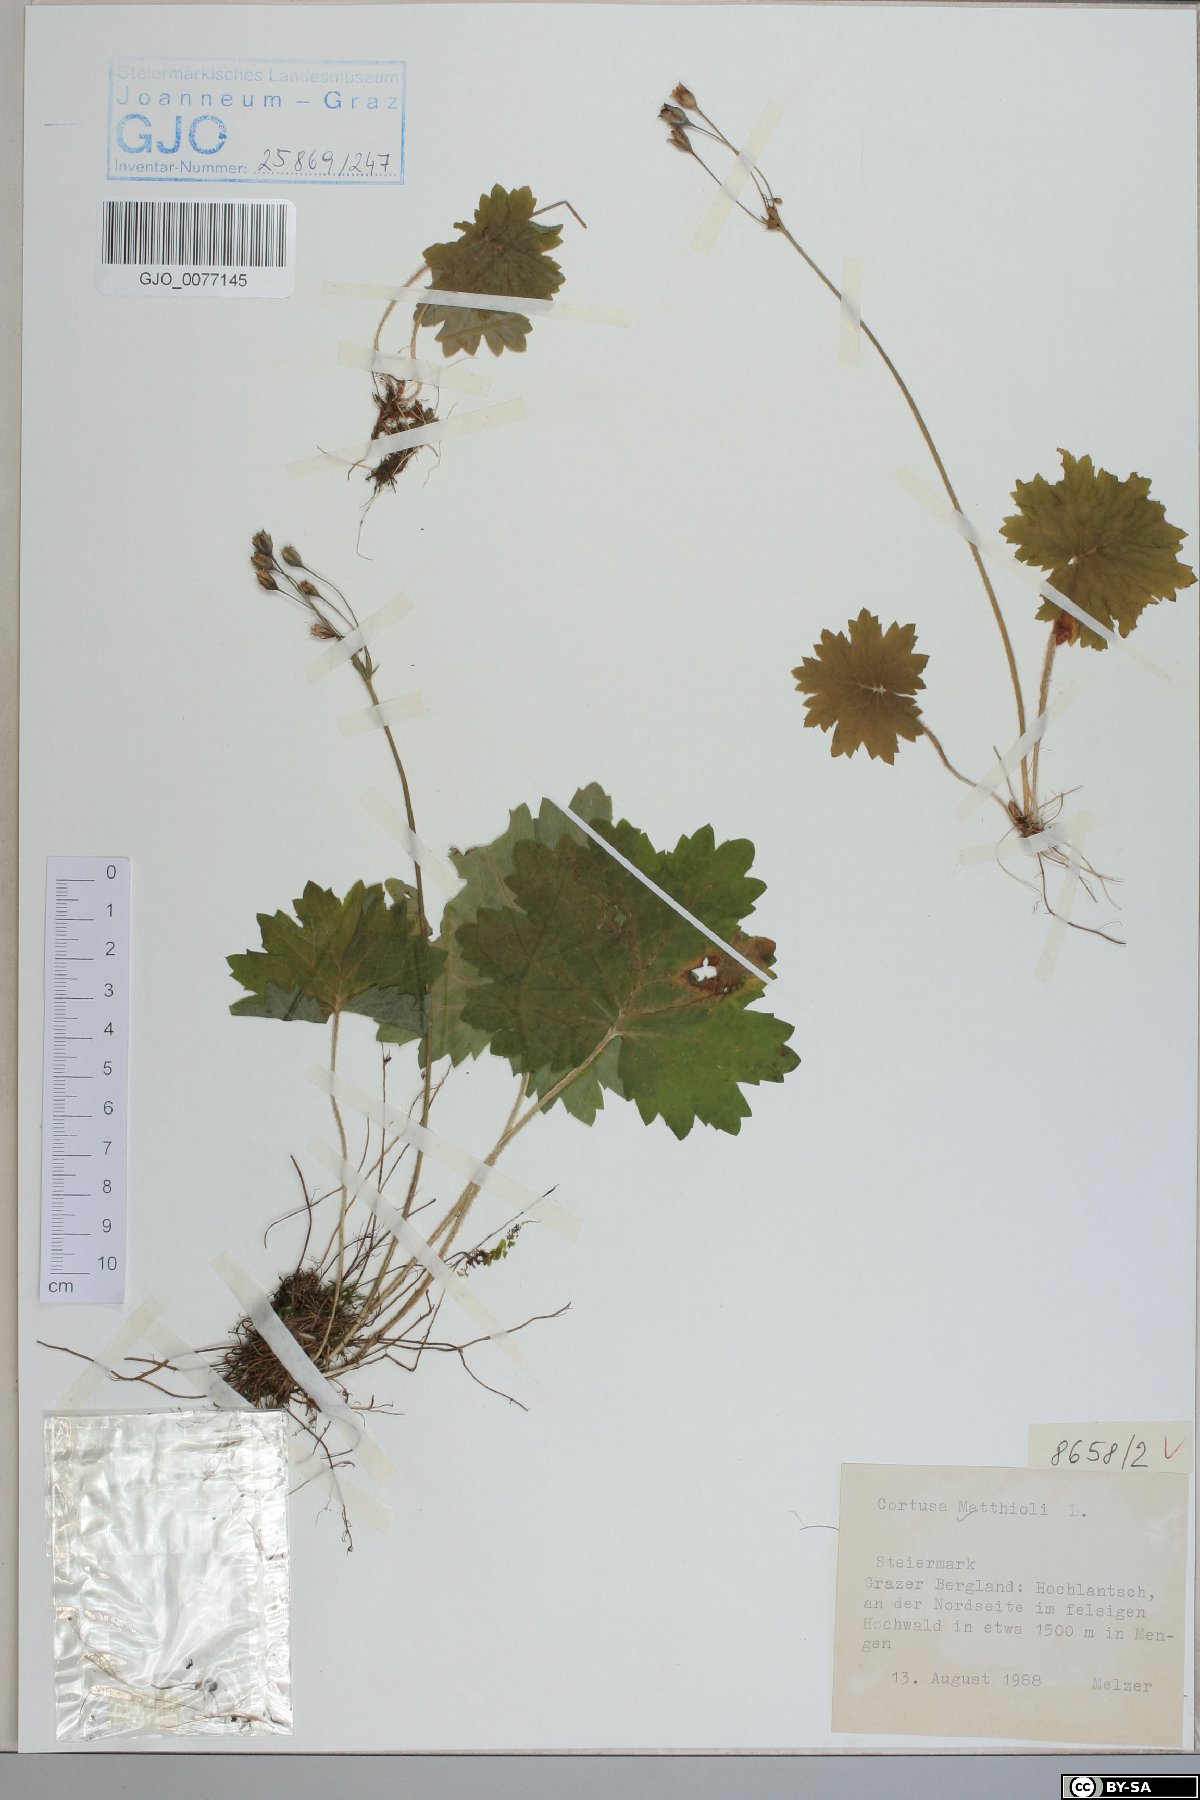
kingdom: Plantae
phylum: Tracheophyta
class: Magnoliopsida
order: Ericales
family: Primulaceae
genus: Primula
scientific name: Primula matthioli
